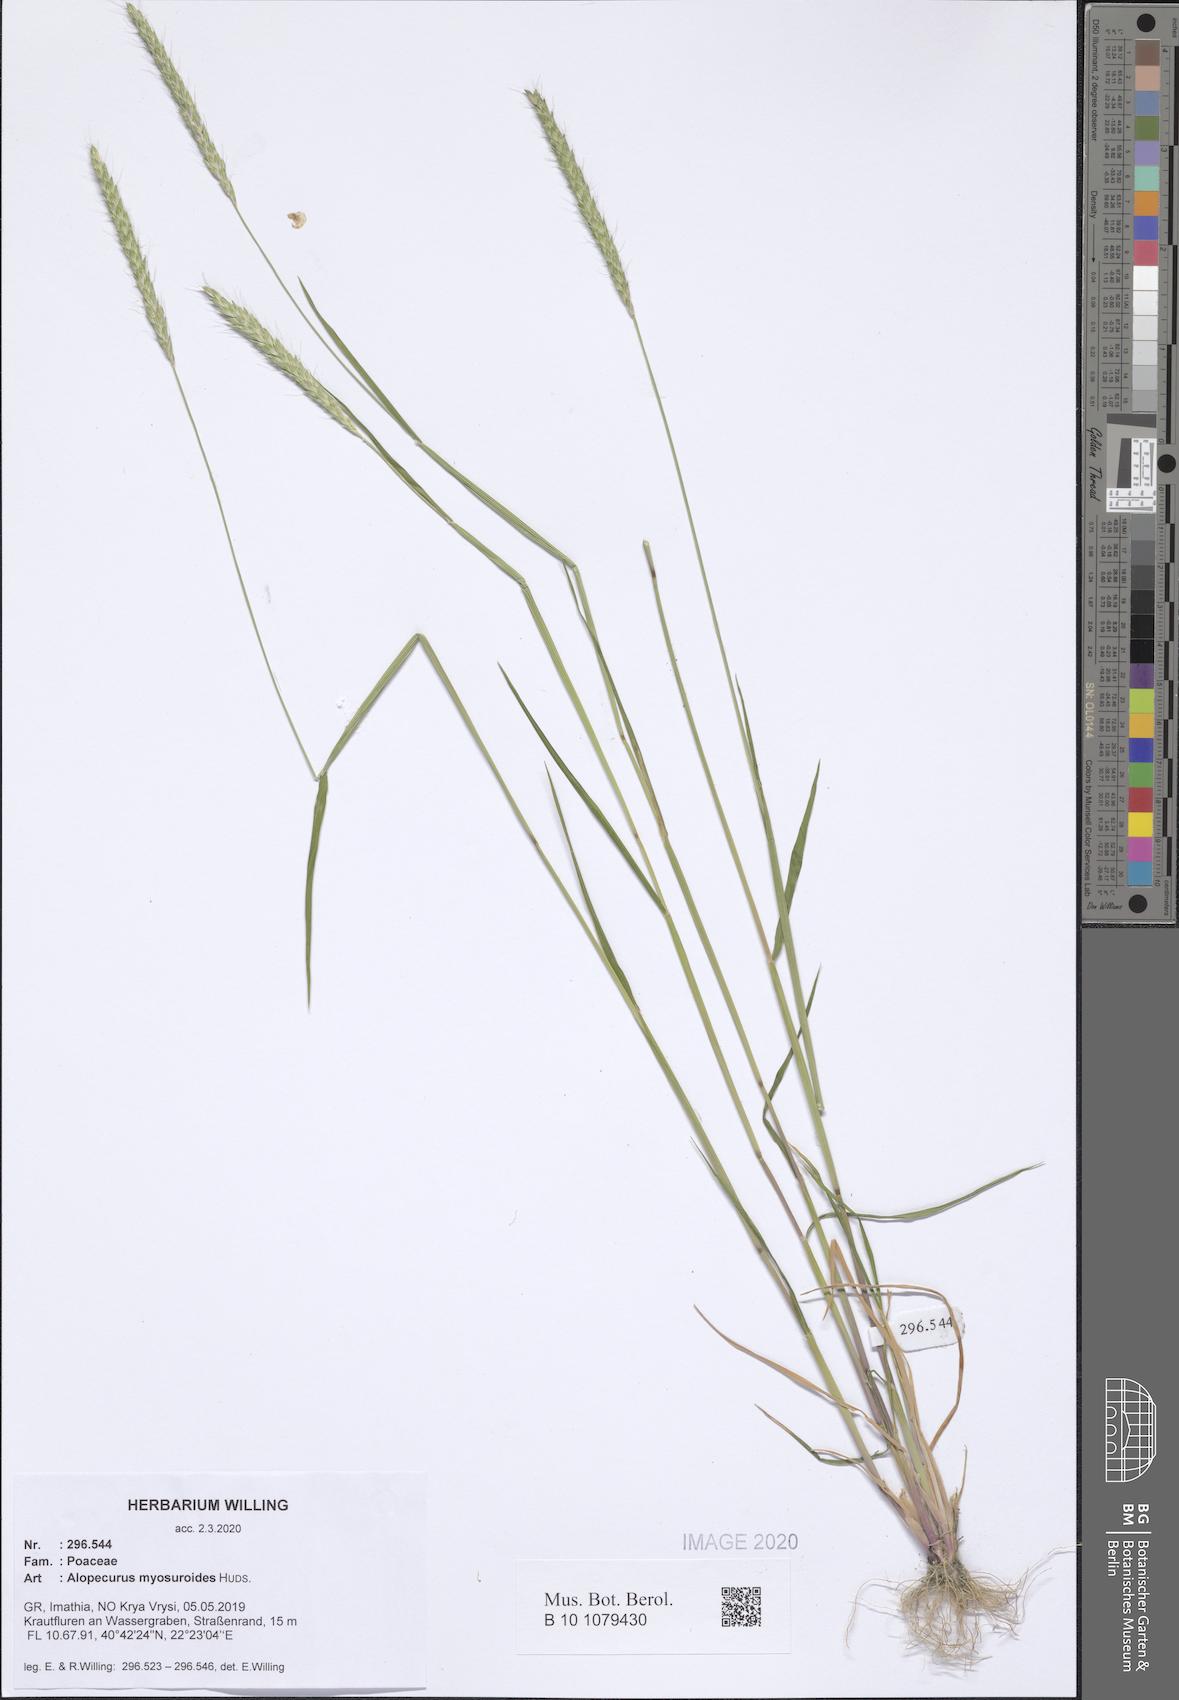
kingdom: Plantae
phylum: Tracheophyta
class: Liliopsida
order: Poales
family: Poaceae
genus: Alopecurus
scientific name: Alopecurus myosuroides
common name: Black-grass
